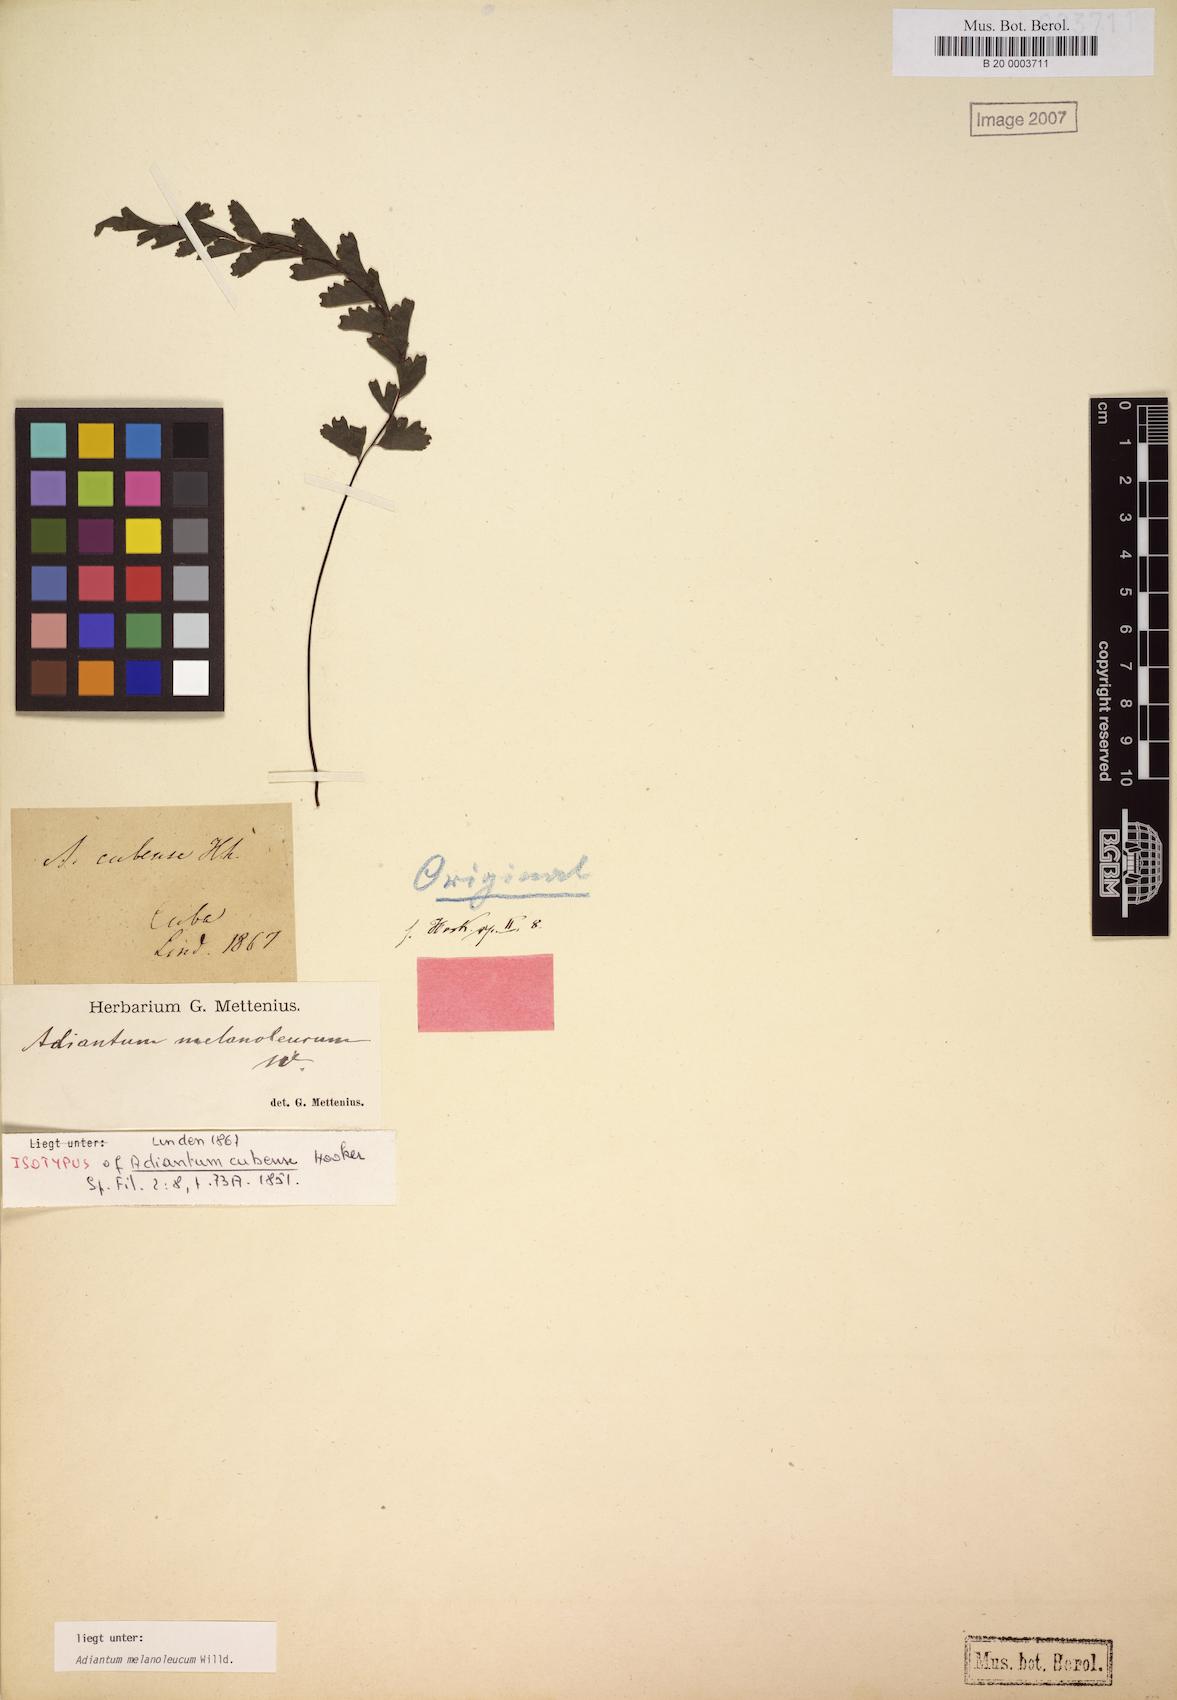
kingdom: Plantae
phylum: Tracheophyta
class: Polypodiopsida
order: Polypodiales
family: Pteridaceae
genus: Adiantum
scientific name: Adiantum melanoleucum
